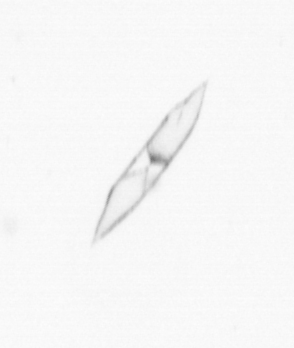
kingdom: Chromista
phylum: Ochrophyta
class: Bacillariophyceae
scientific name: Bacillariophyceae
